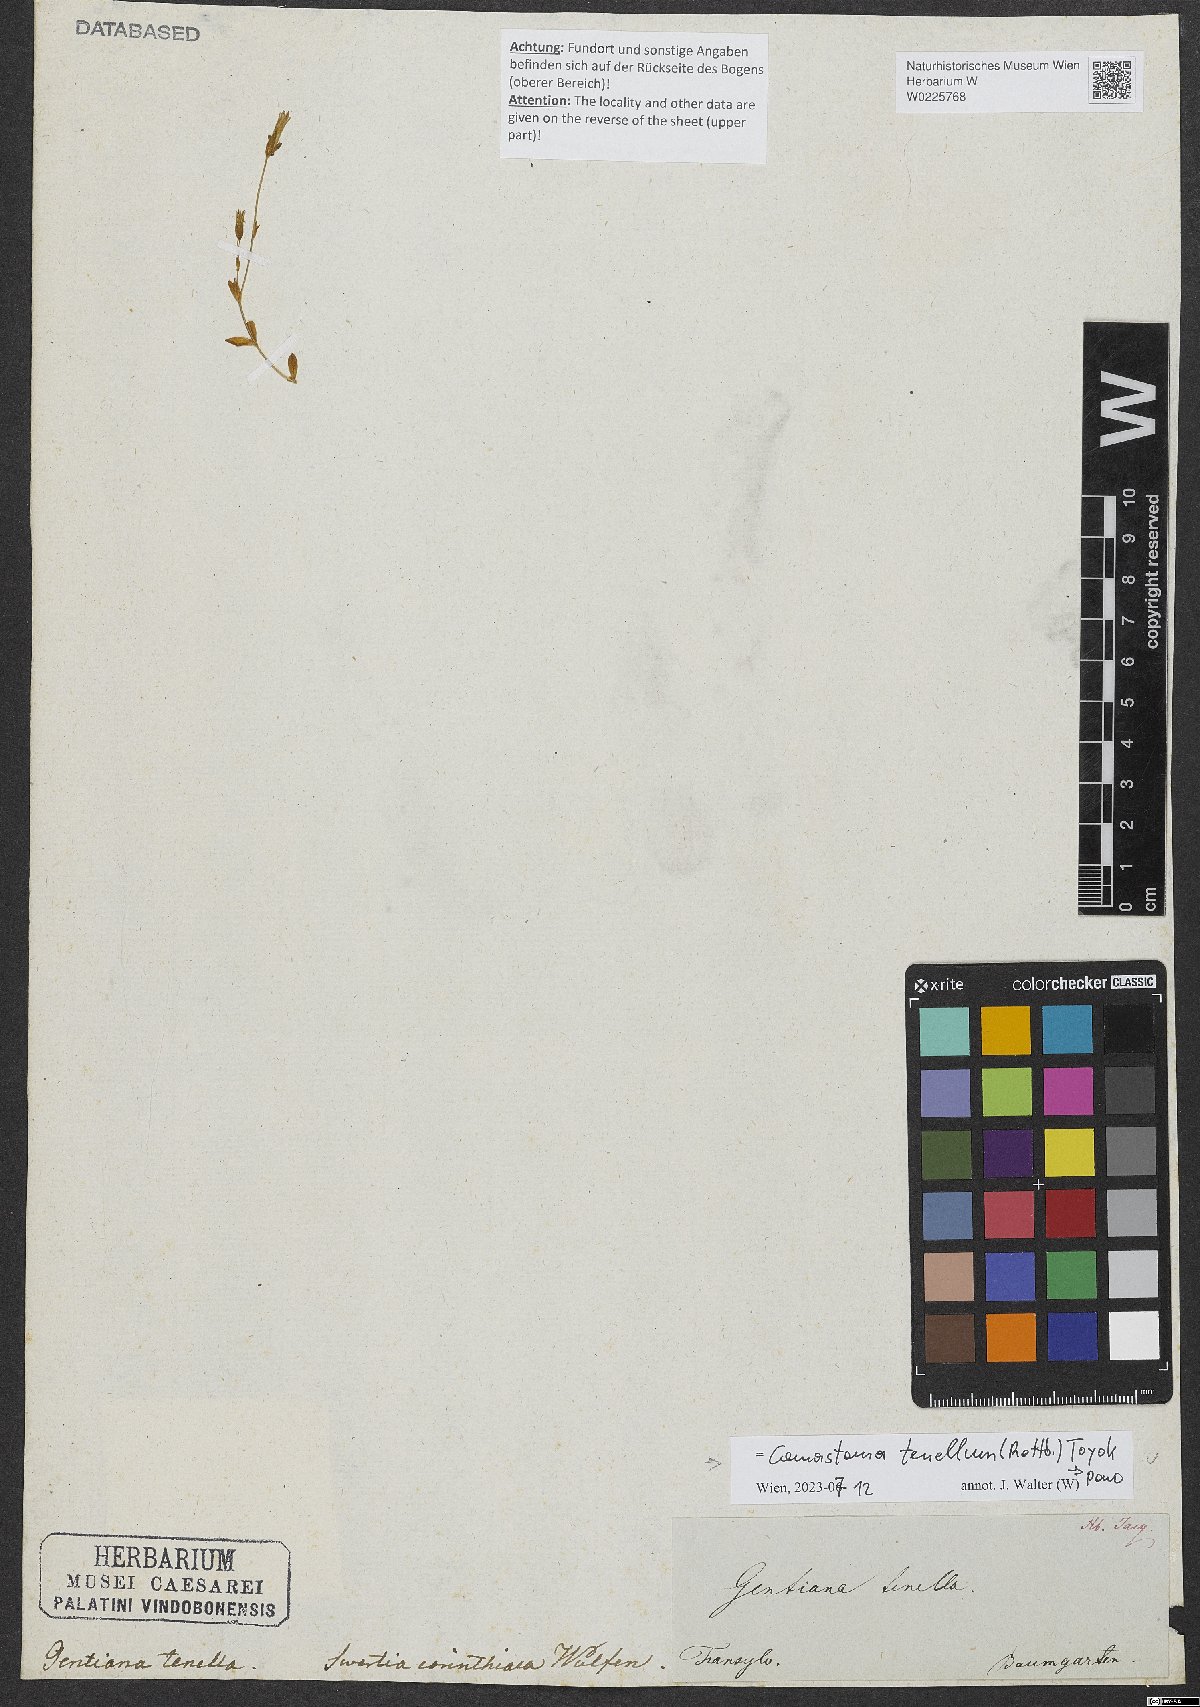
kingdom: Plantae
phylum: Tracheophyta
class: Magnoliopsida
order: Gentianales
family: Gentianaceae
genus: Comastoma
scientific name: Comastoma tenellum
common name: Dane's dwarf gentian
